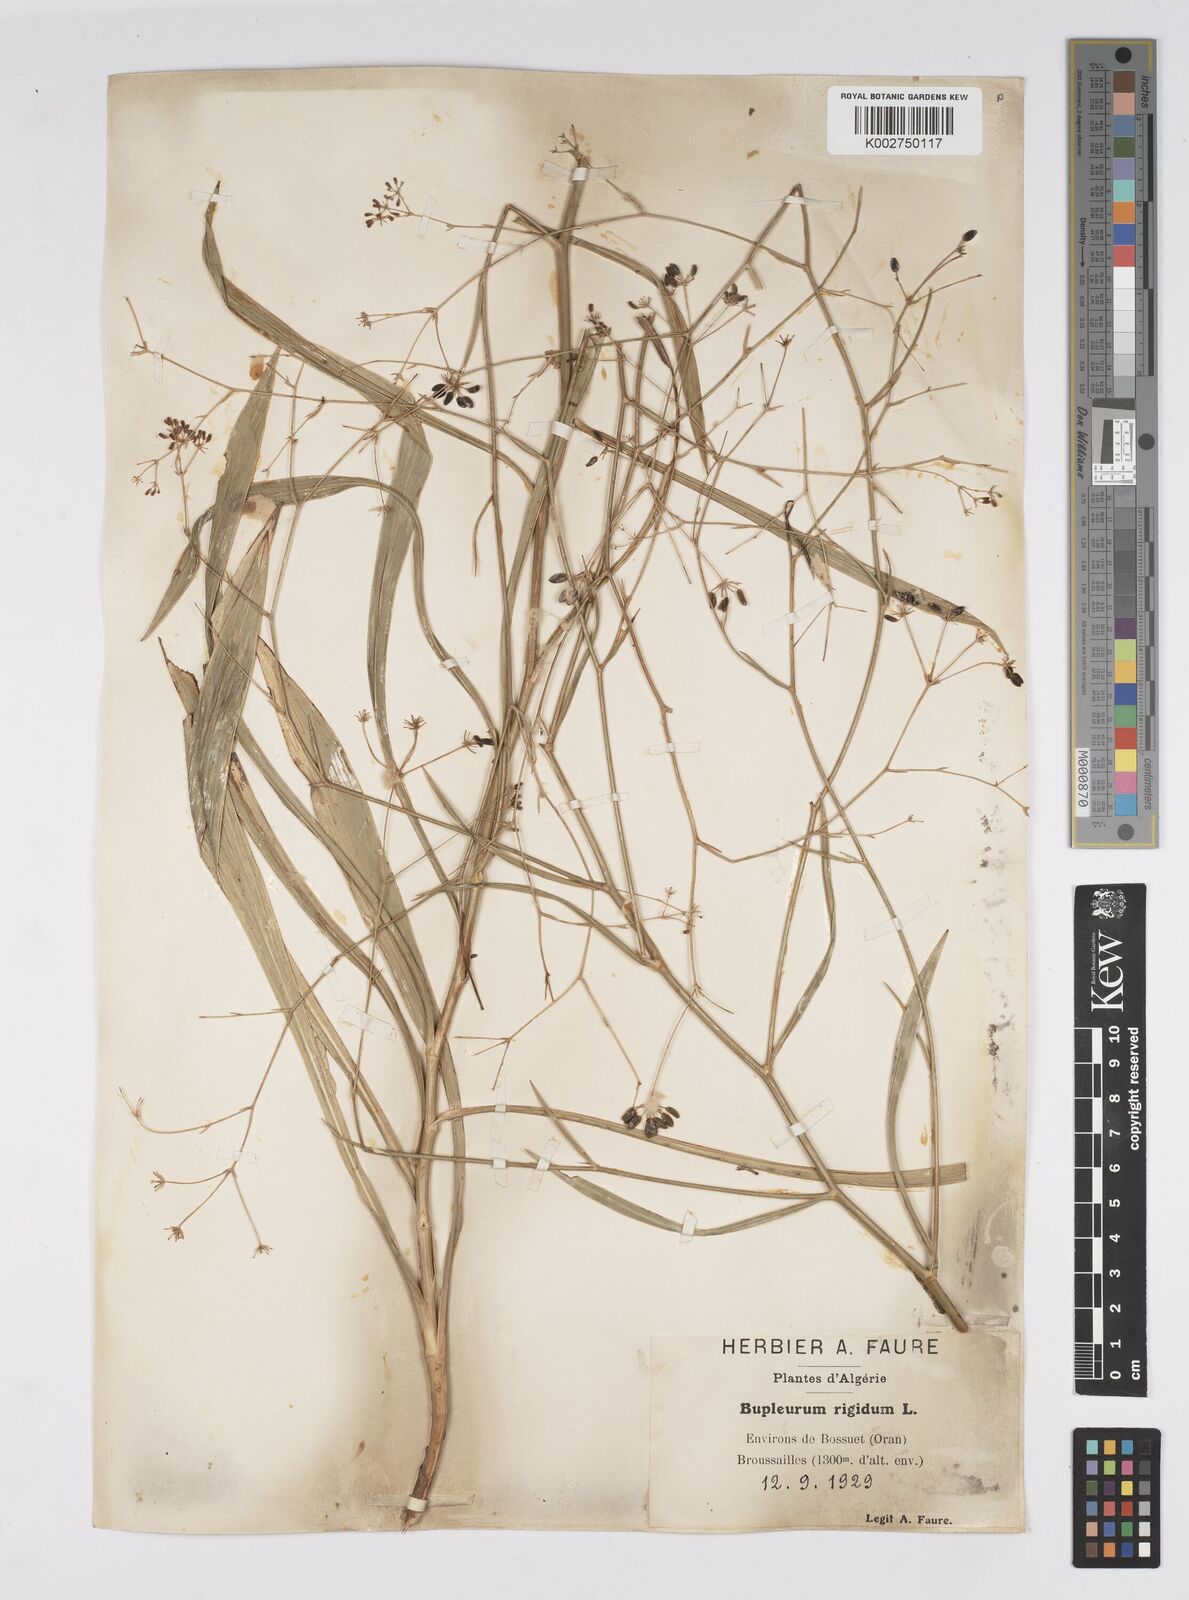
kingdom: Plantae
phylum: Tracheophyta
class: Magnoliopsida
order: Apiales
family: Apiaceae
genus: Bupleurum
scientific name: Bupleurum rigidum
